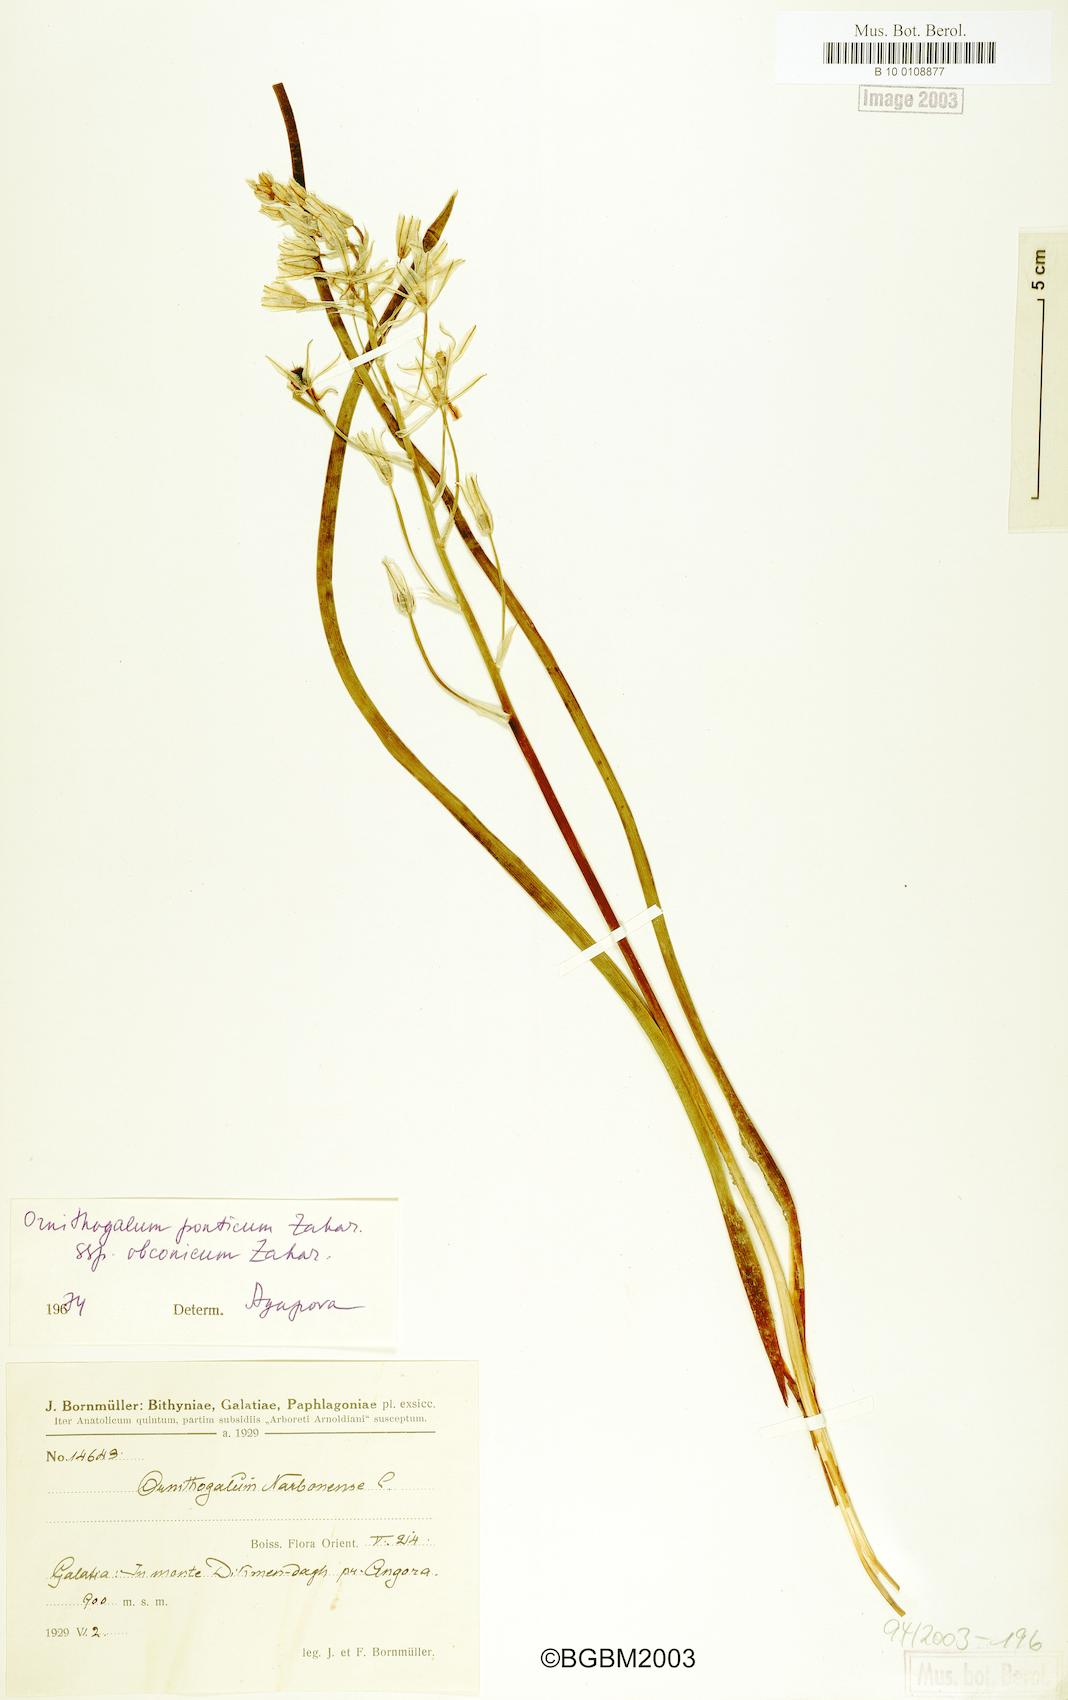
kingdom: Plantae
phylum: Tracheophyta
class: Liliopsida
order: Asparagales
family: Asparagaceae
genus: Ornithogalum
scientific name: Ornithogalum hajastanum
